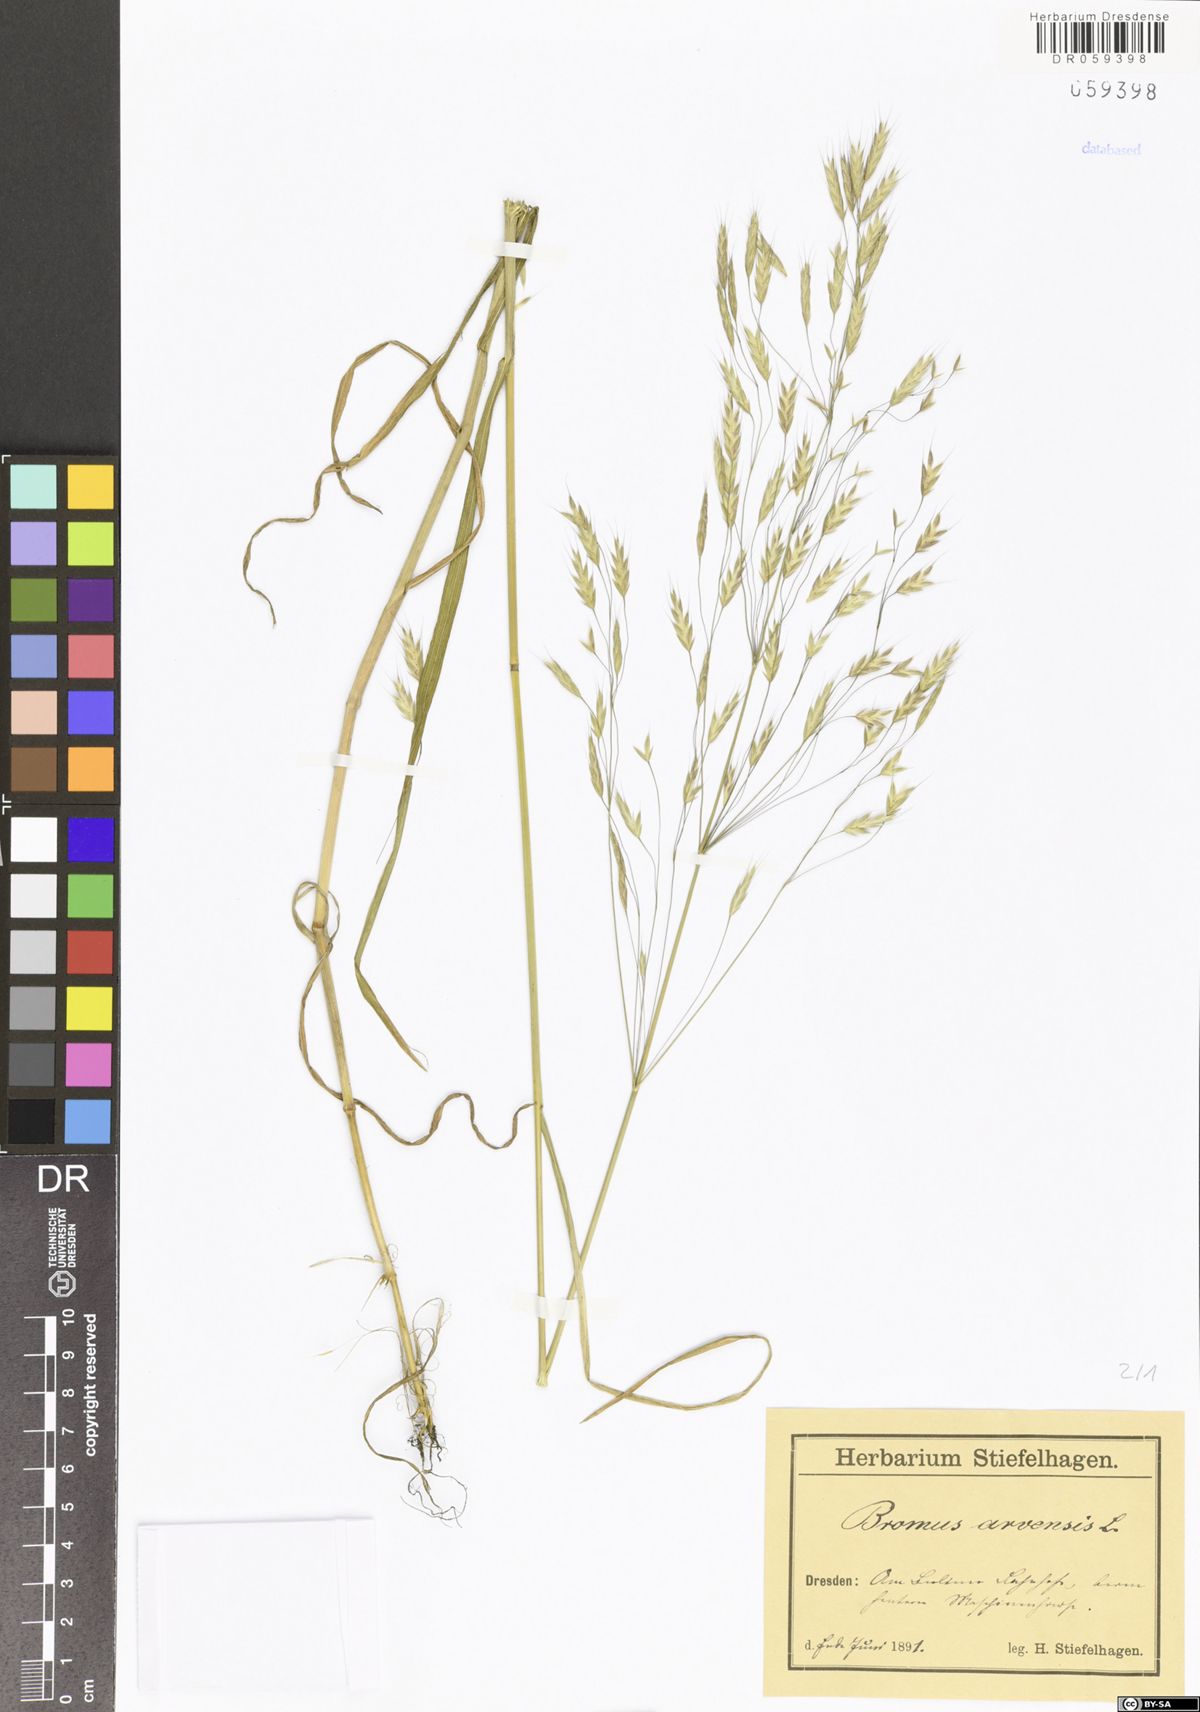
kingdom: Plantae
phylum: Tracheophyta
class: Liliopsida
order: Poales
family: Poaceae
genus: Bromus
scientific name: Bromus arvensis
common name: Field brome
